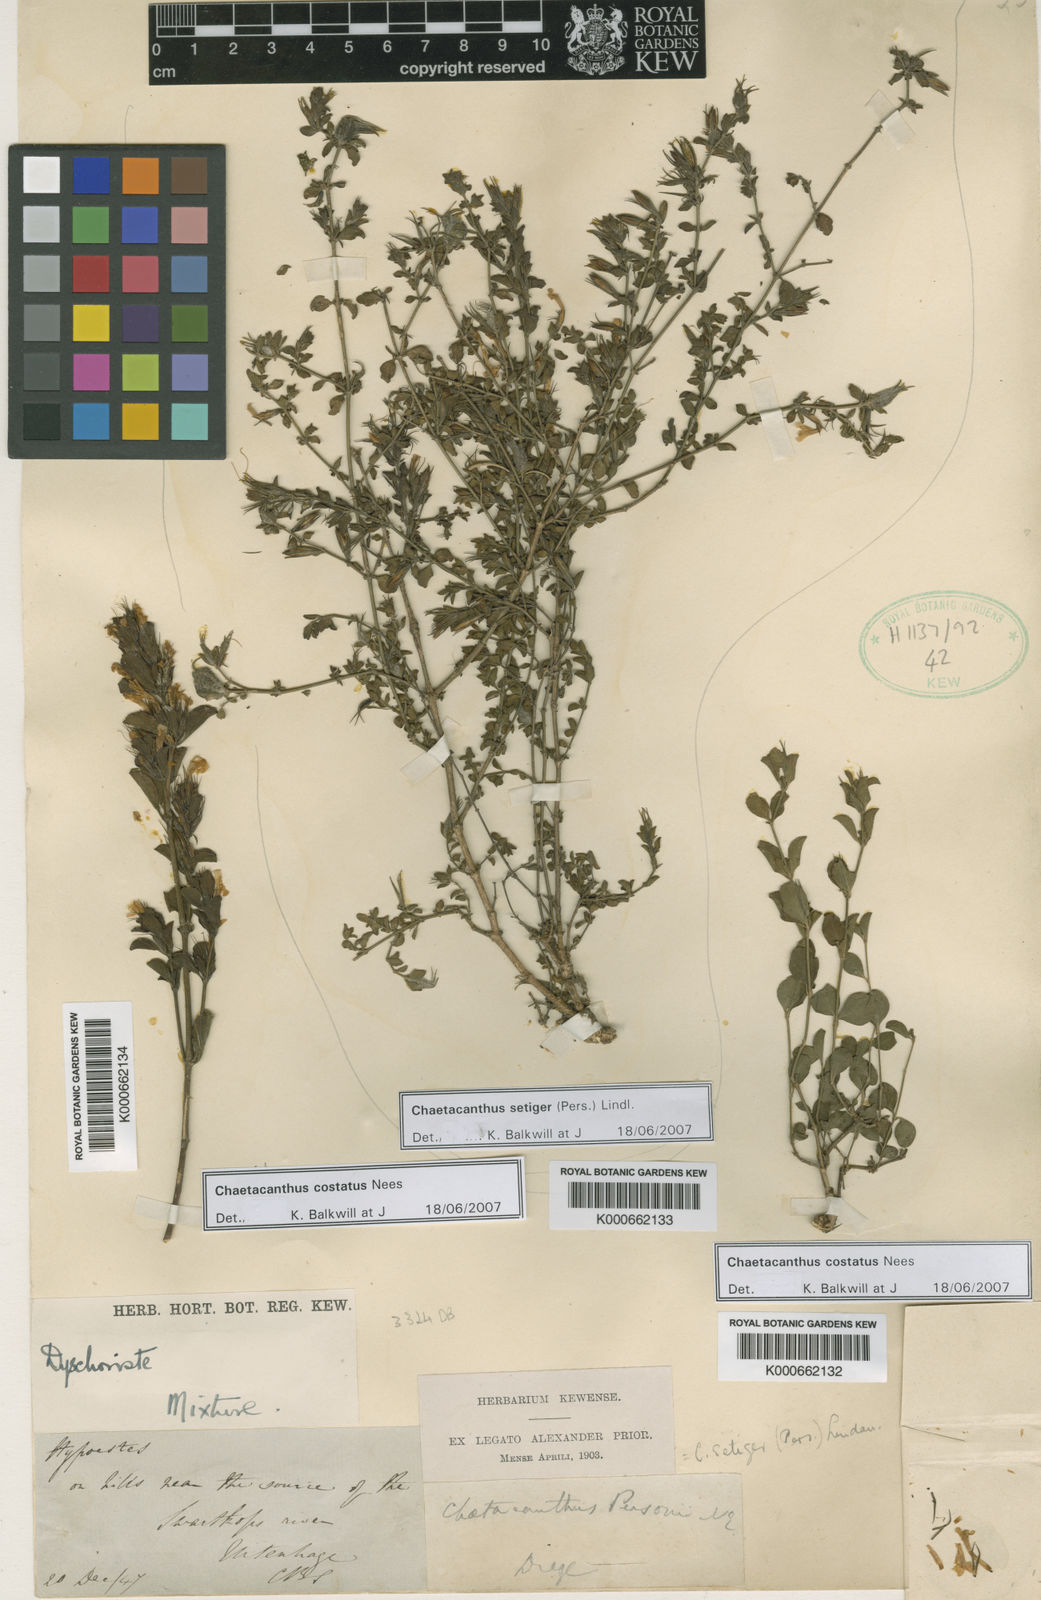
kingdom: Plantae
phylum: Tracheophyta
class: Magnoliopsida
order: Lamiales
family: Acanthaceae
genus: Dyschoriste
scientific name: Dyschoriste costata
